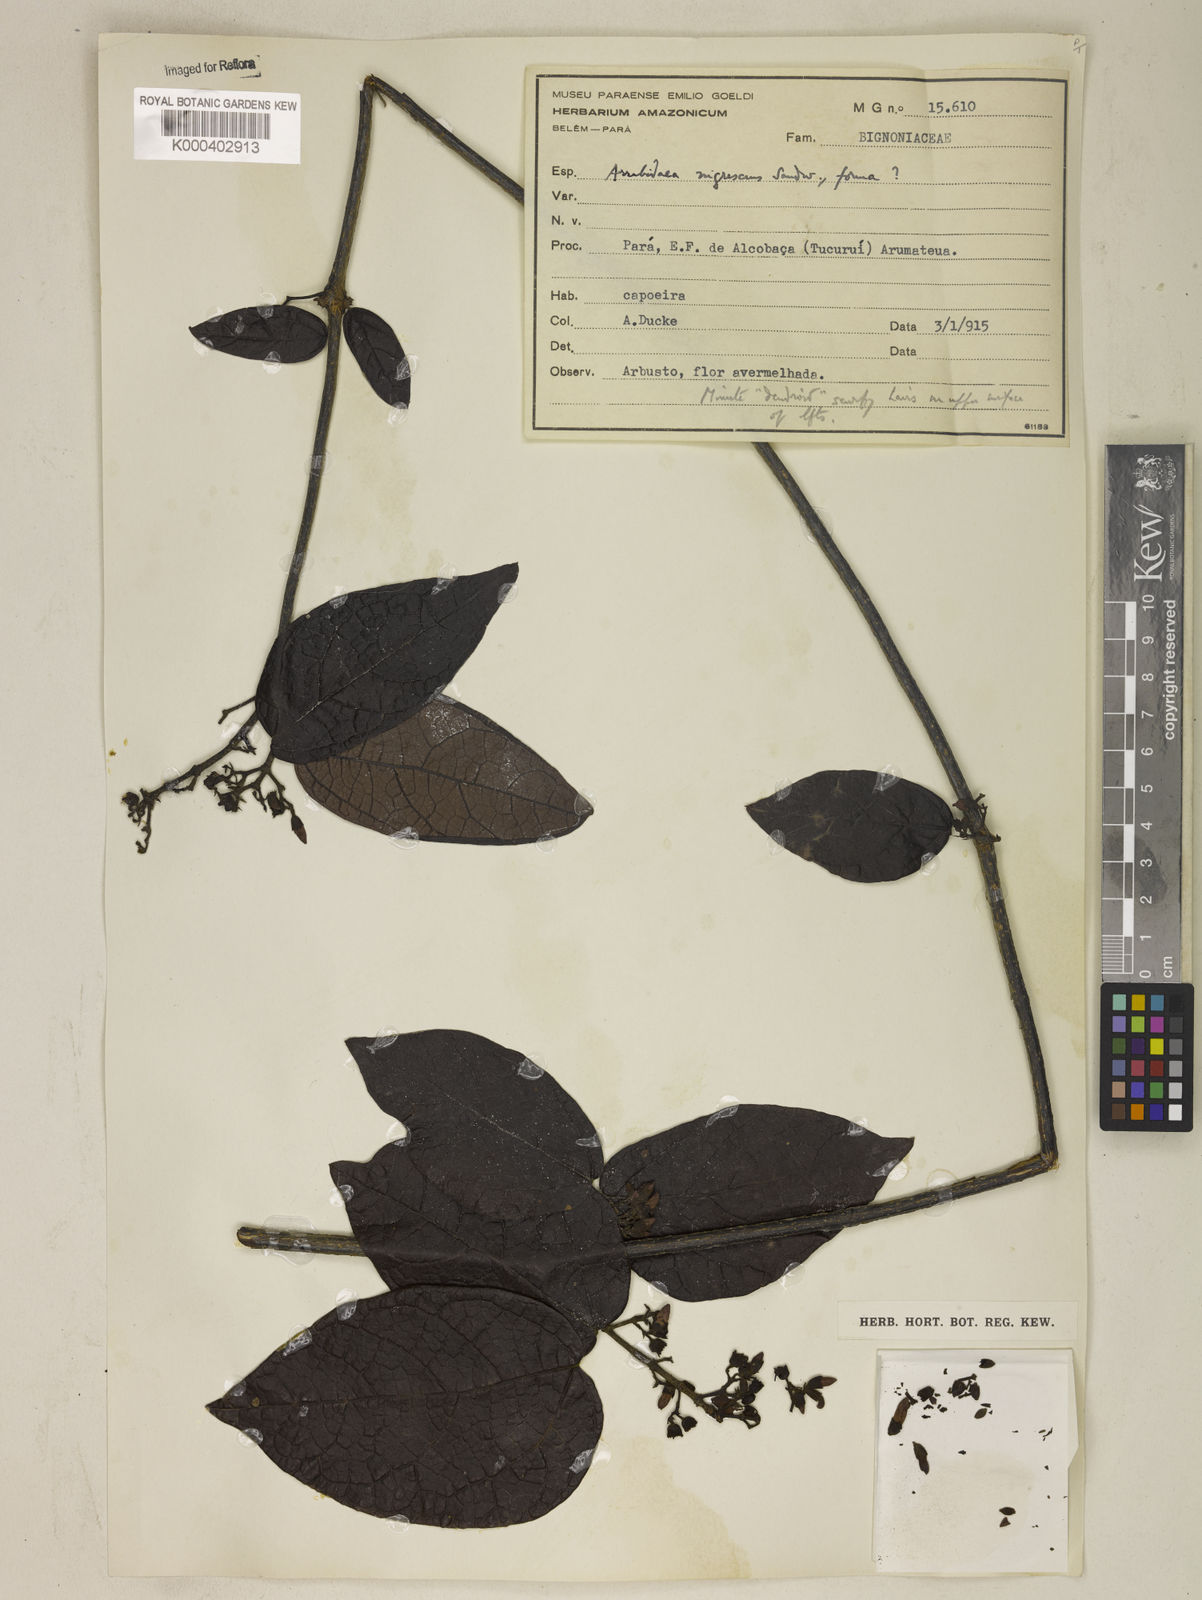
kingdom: Plantae
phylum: Tracheophyta
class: Magnoliopsida
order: Lamiales
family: Bignoniaceae
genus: Fridericia
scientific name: Fridericia nigrescens
